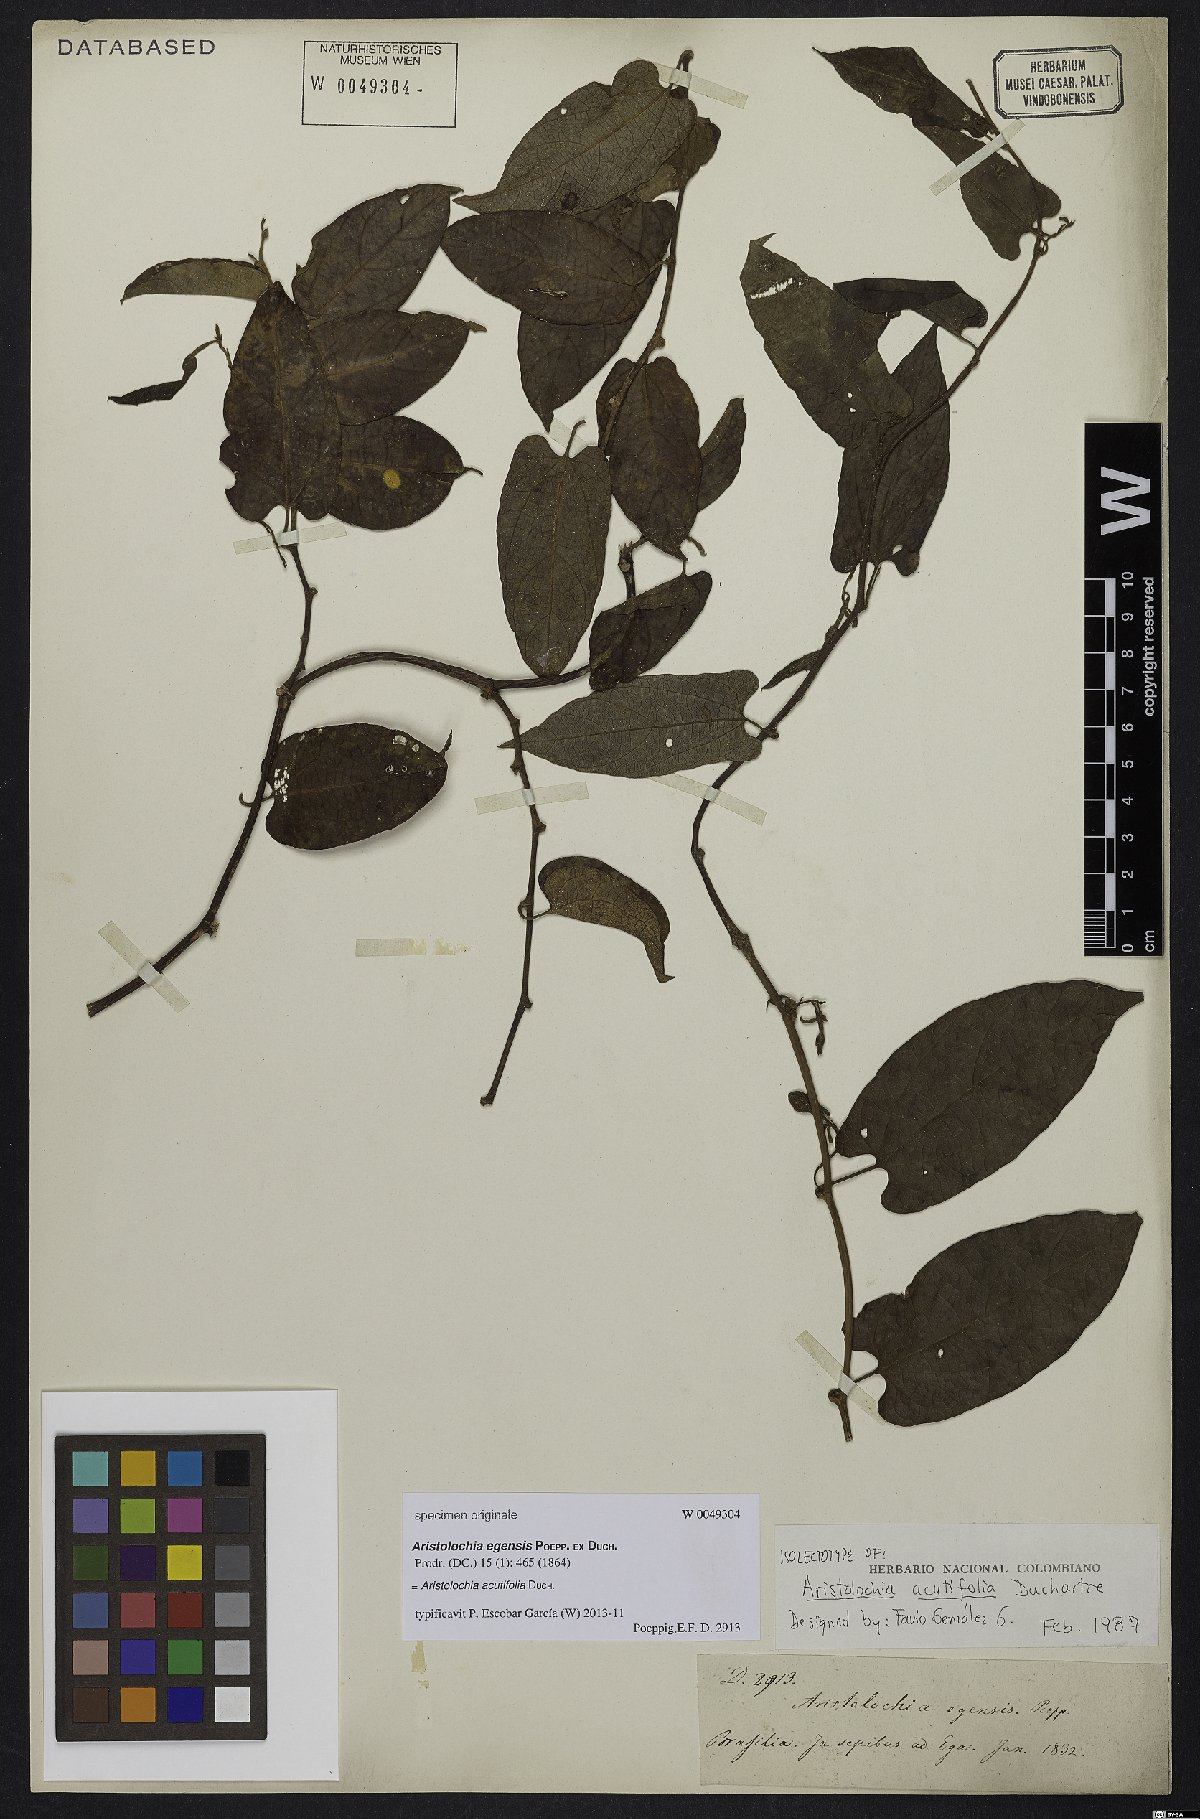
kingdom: Plantae
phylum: Tracheophyta
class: Magnoliopsida
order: Piperales
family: Aristolochiaceae
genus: Aristolochia
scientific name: Aristolochia acutifolia
